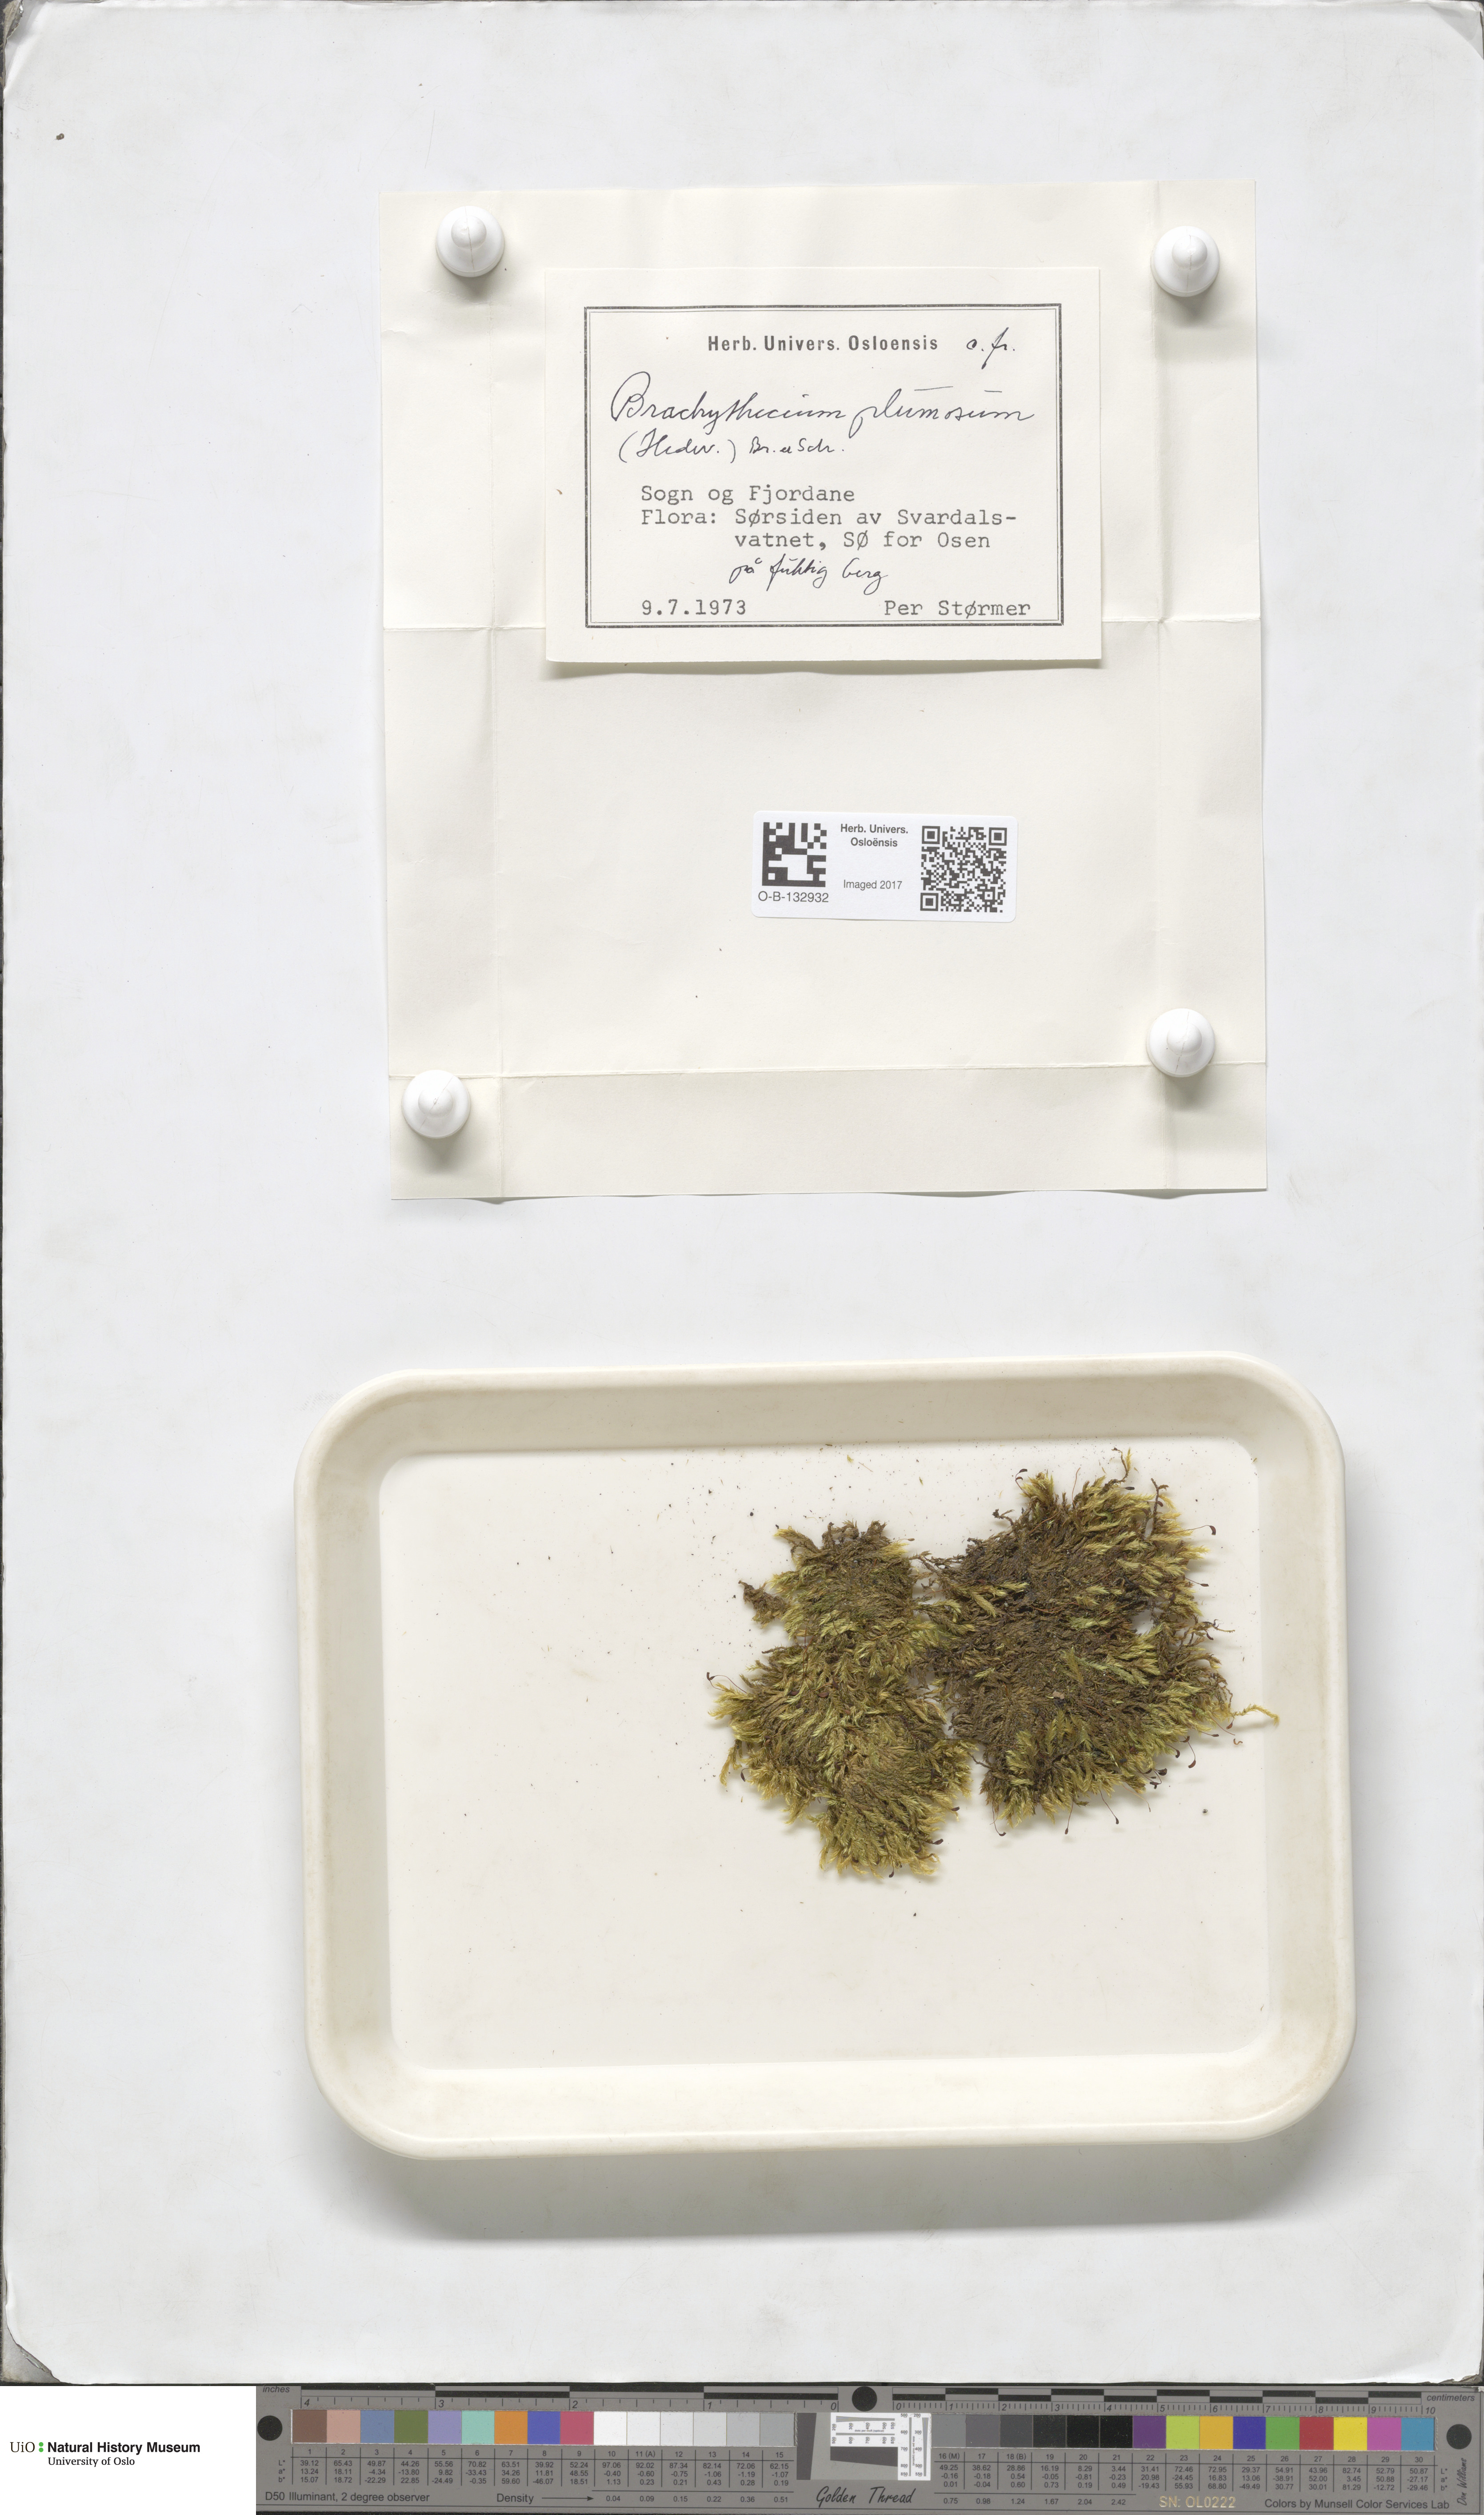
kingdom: Plantae
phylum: Bryophyta
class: Bryopsida
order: Hypnales
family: Brachytheciaceae
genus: Sciuro-hypnum
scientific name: Sciuro-hypnum plumosum
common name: Rusty feather-moss
